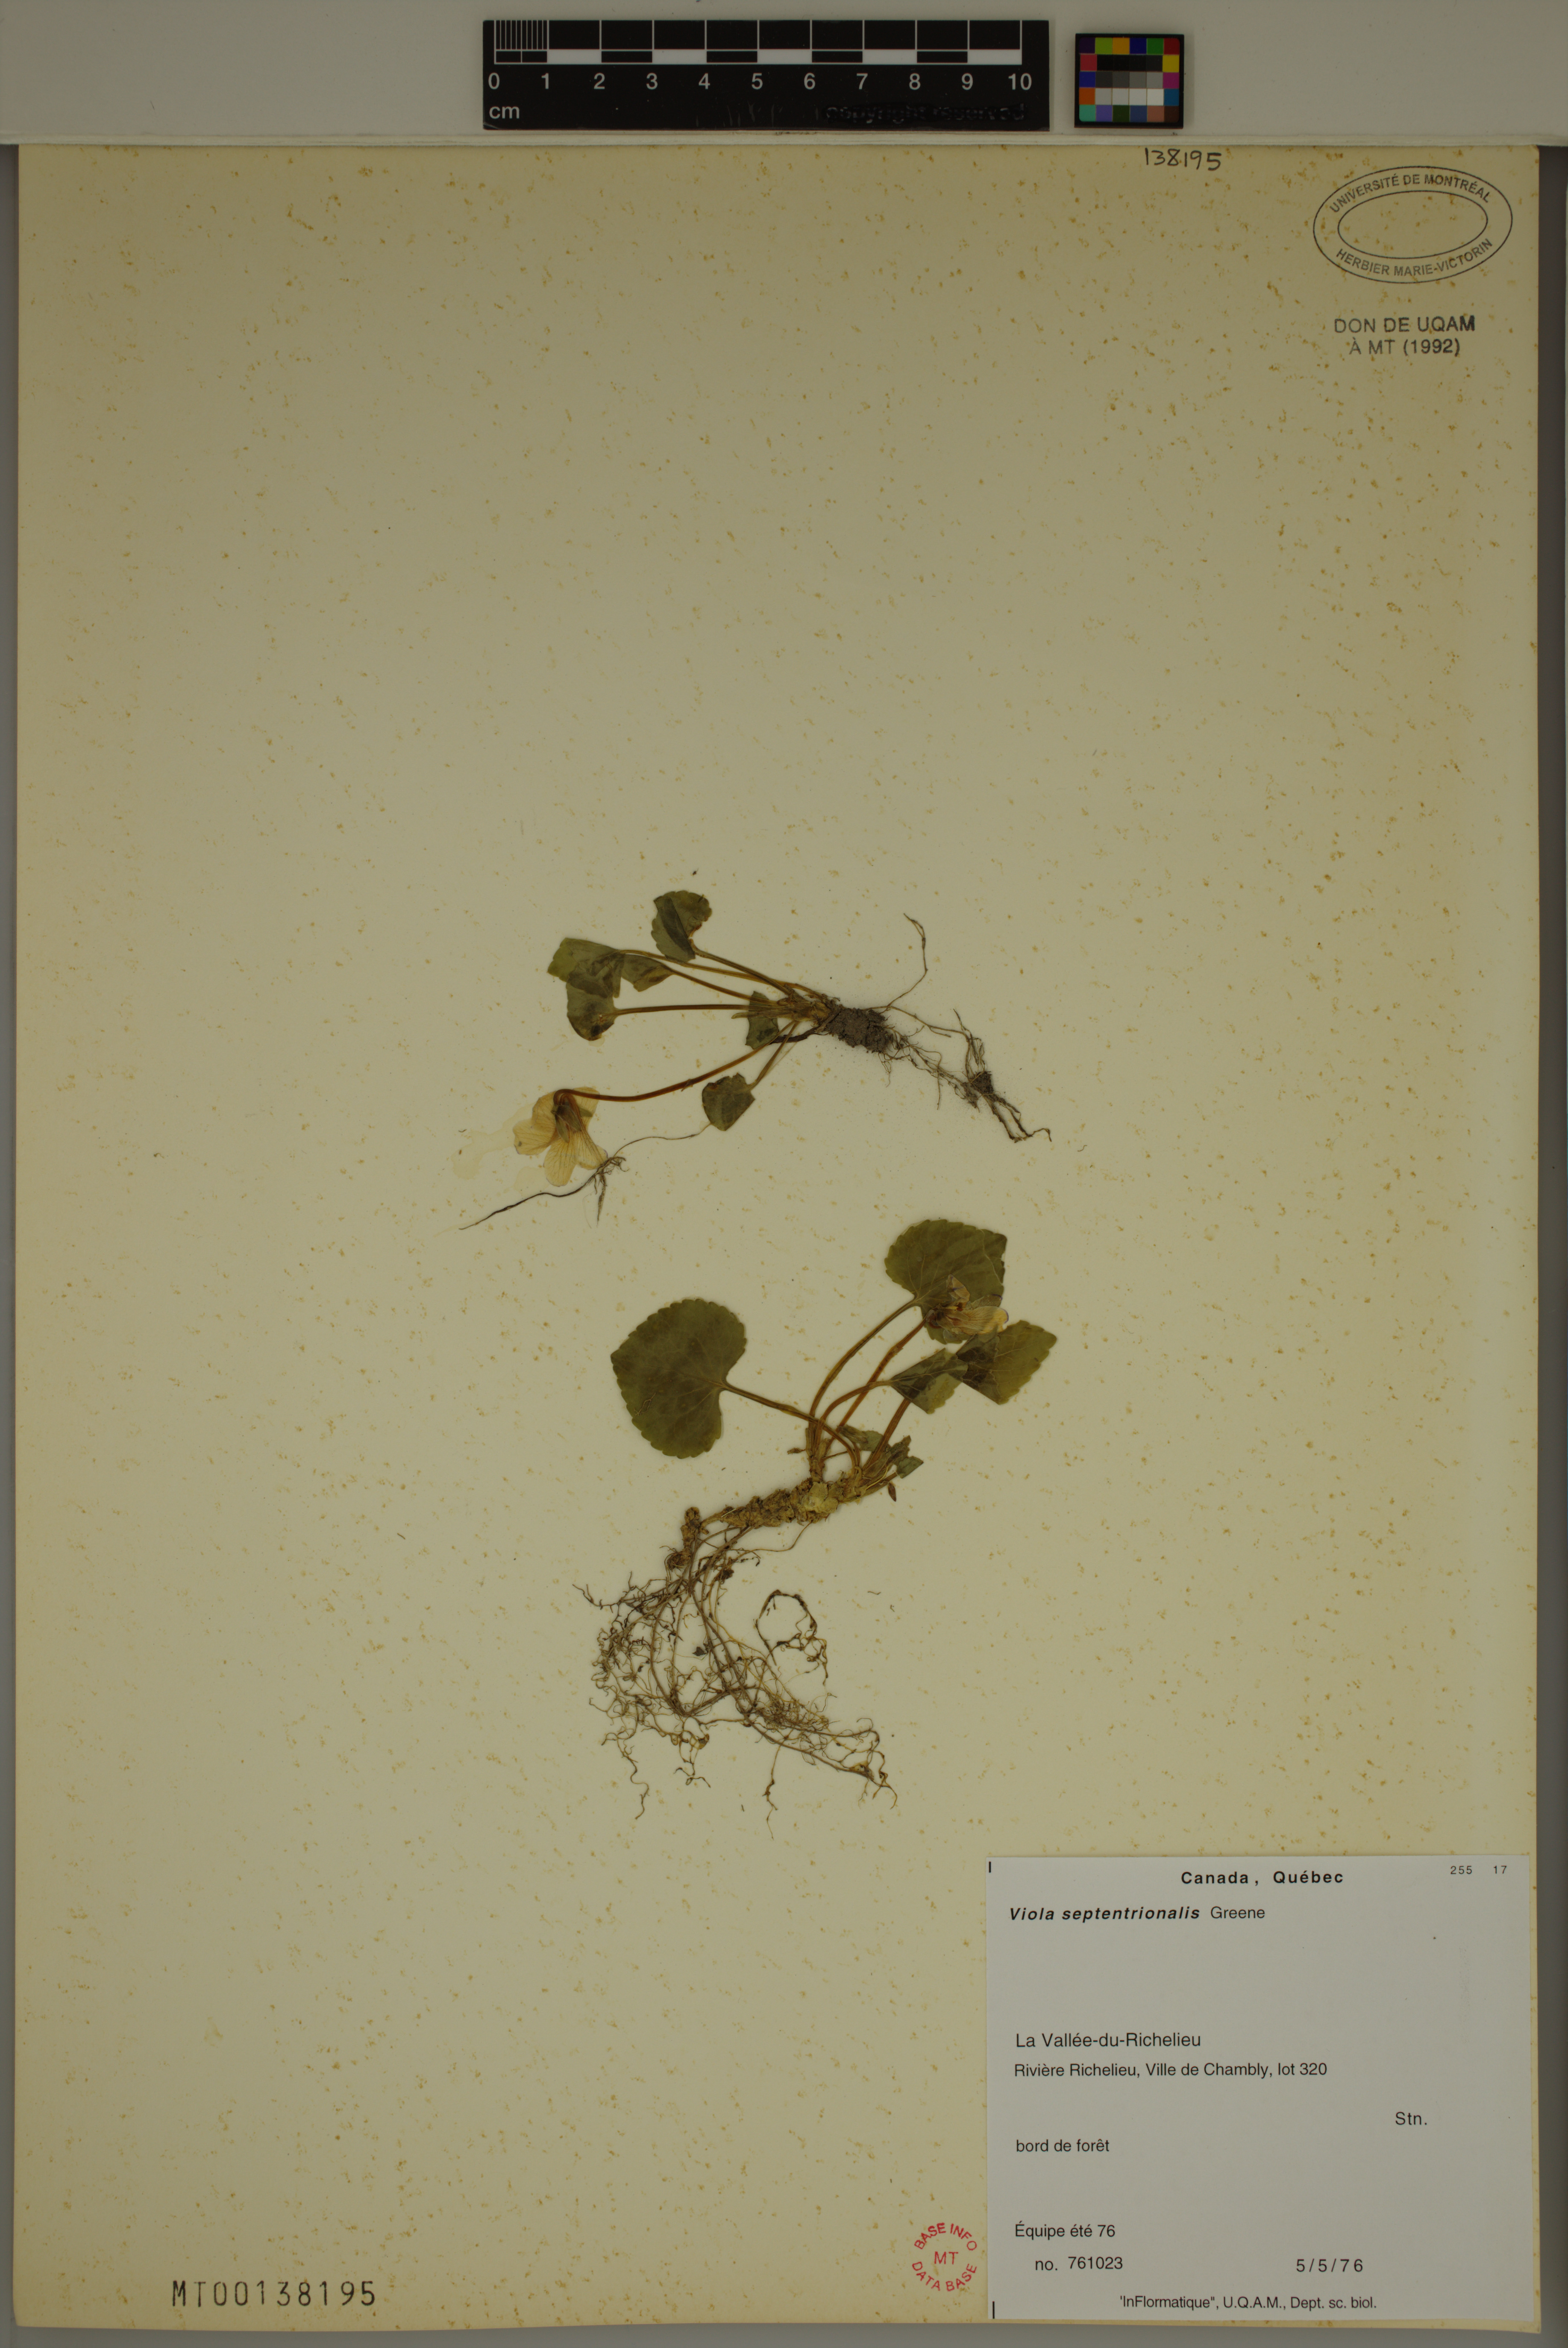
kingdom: Plantae
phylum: Tracheophyta
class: Magnoliopsida
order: Malpighiales
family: Violaceae
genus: Viola
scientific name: Viola septentrionalis
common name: Northern woodland violet
